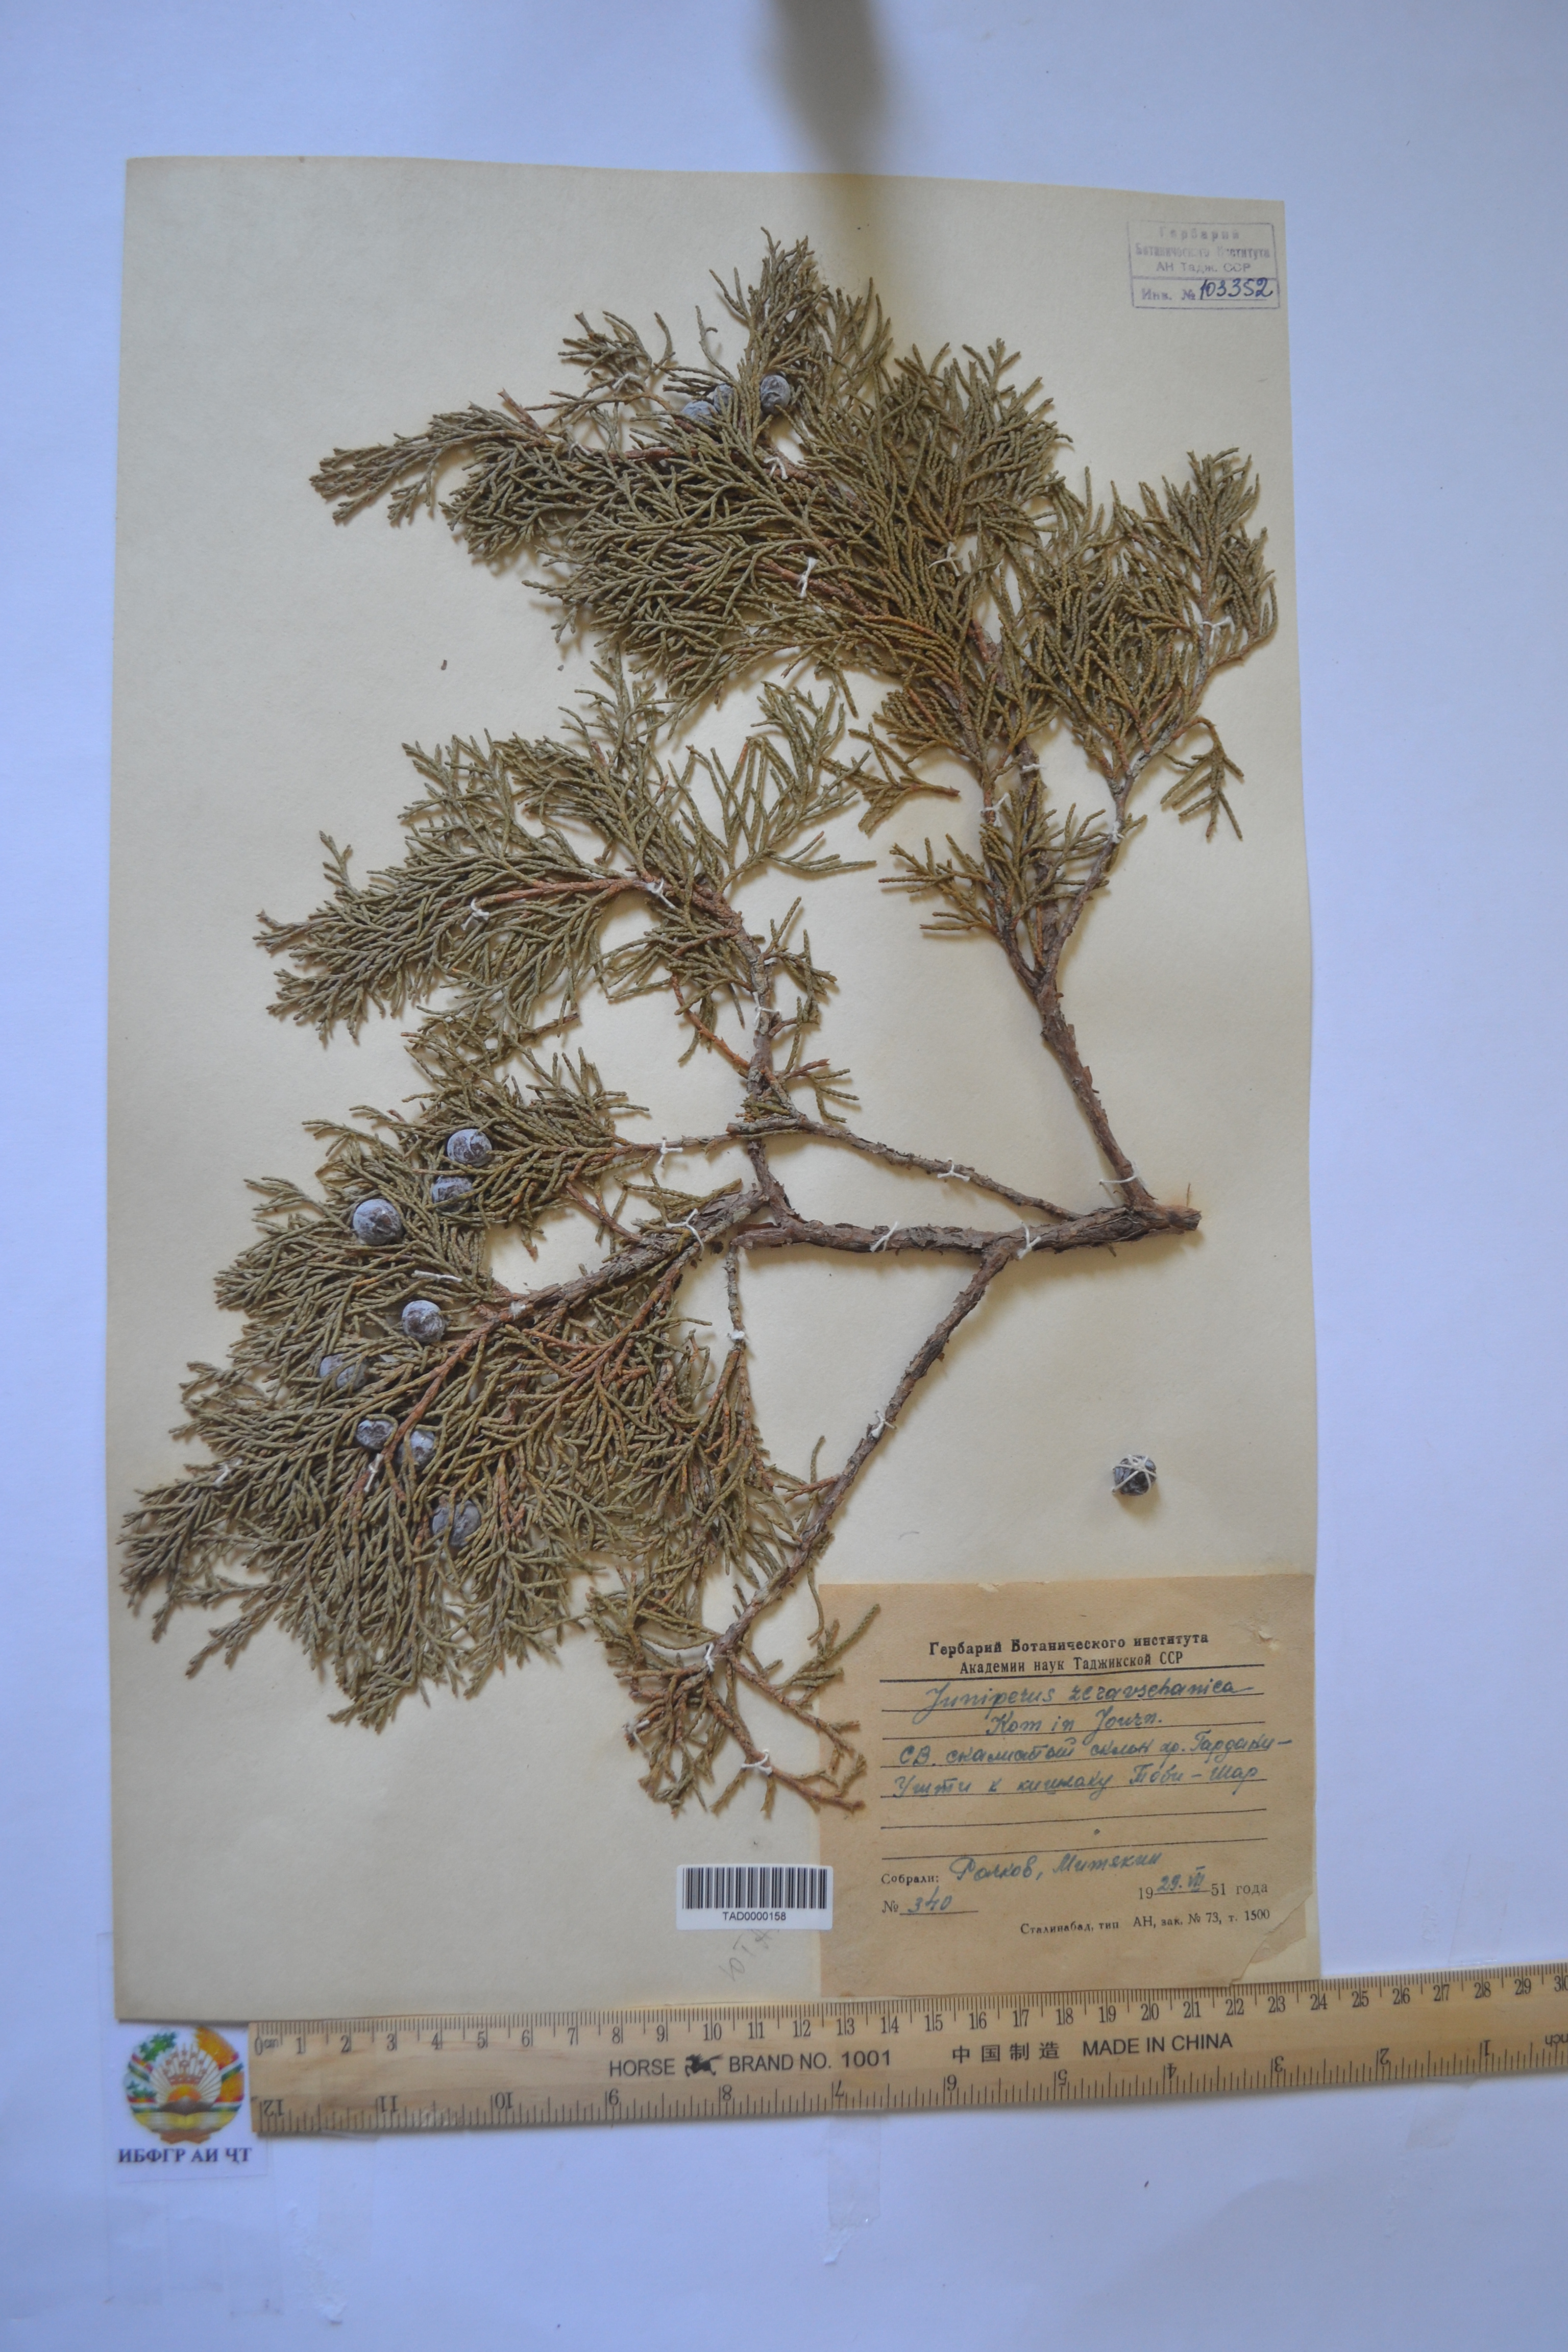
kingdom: Plantae
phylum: Tracheophyta
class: Pinopsida
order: Pinales
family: Cupressaceae
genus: Juniperus
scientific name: Juniperus excelsa
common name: Crimean juniper
